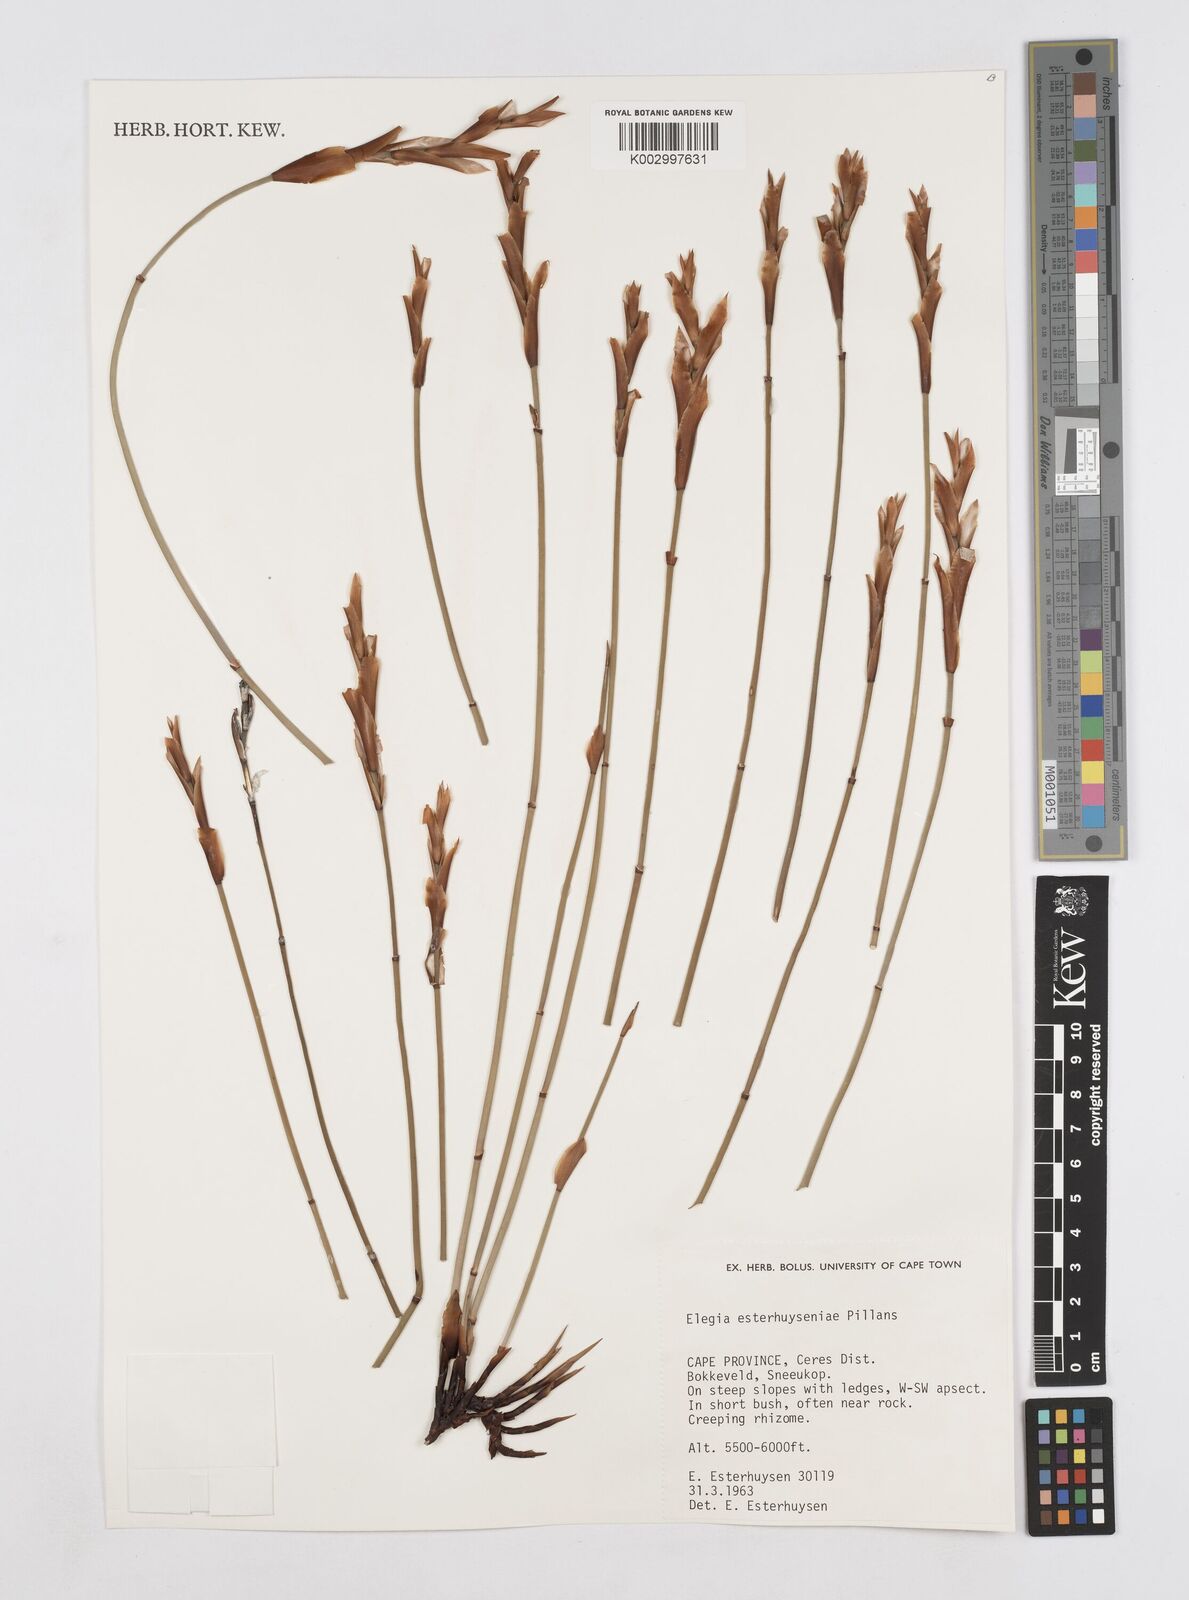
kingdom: Plantae
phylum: Tracheophyta
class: Liliopsida
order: Poales
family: Restionaceae
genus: Elegia
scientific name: Elegia esterhuyseniae
